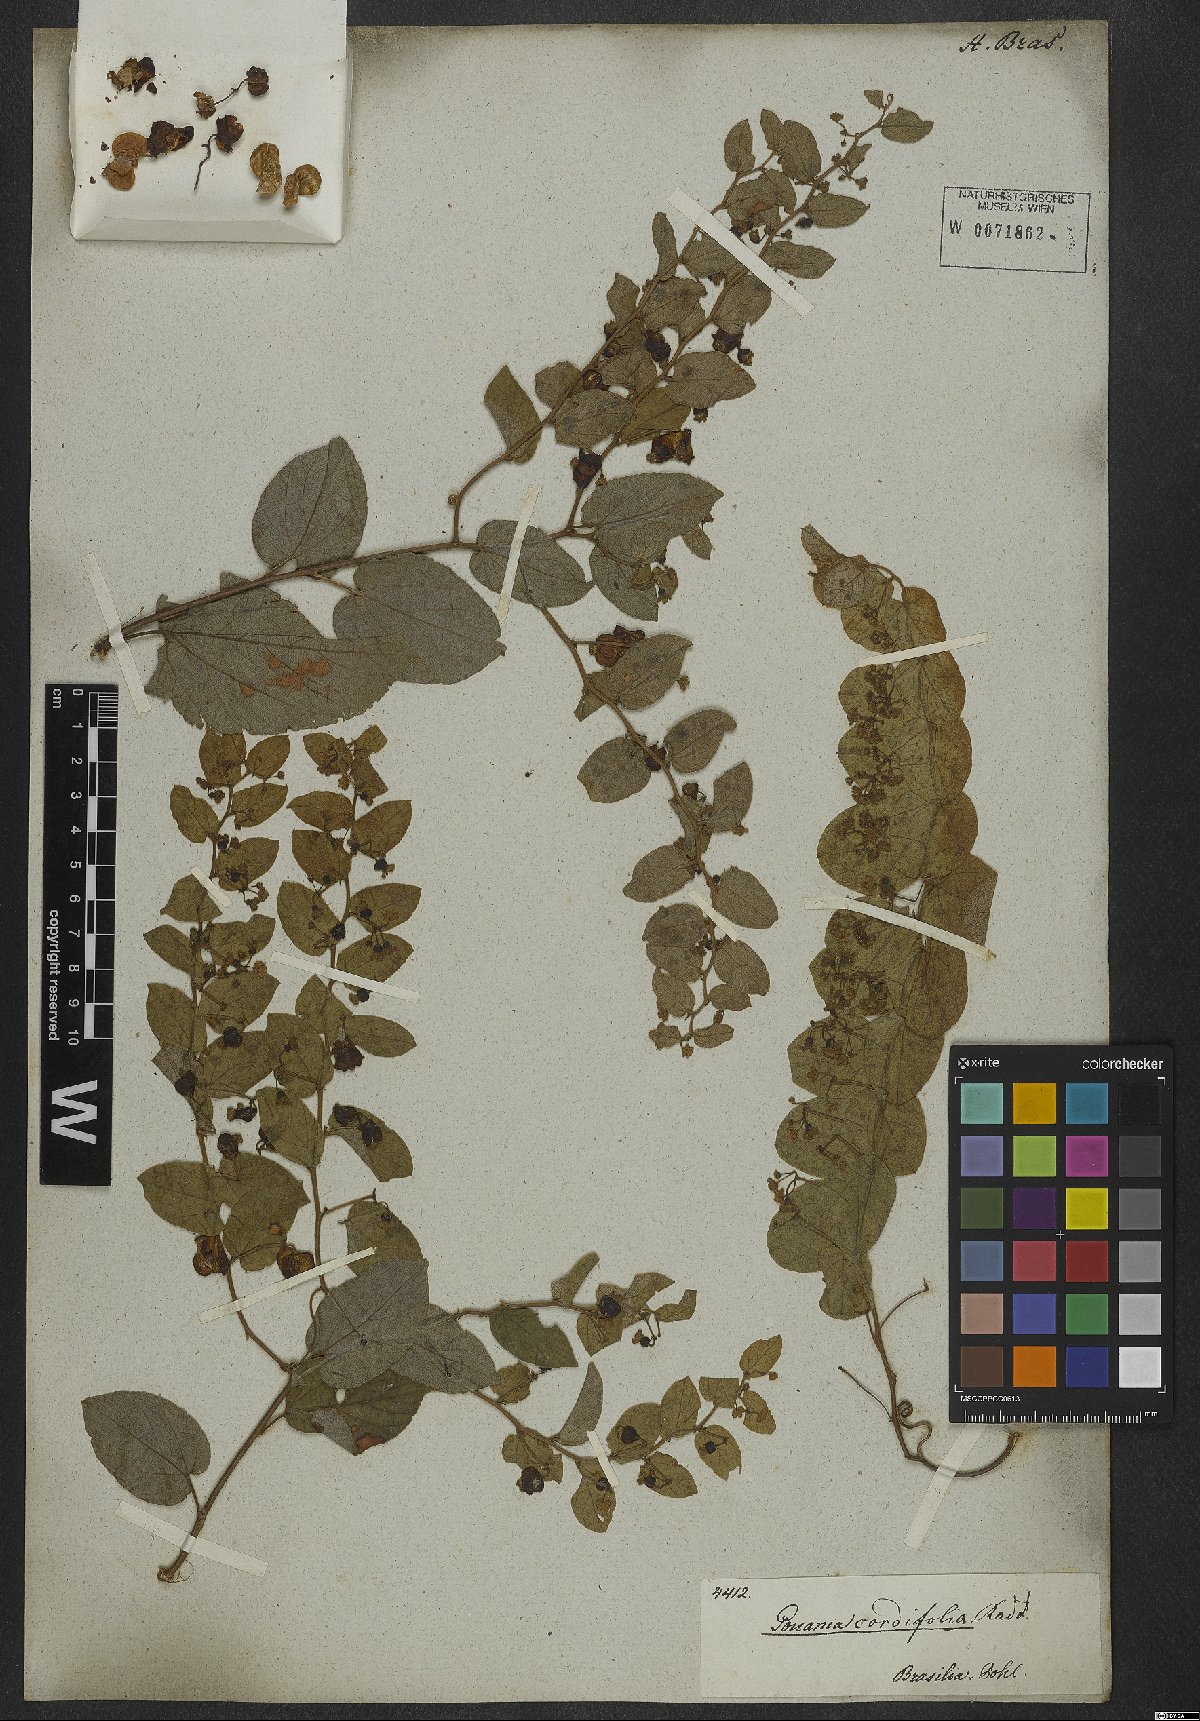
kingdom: Plantae
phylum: Tracheophyta
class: Magnoliopsida
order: Rosales
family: Rhamnaceae
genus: Reissekia
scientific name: Reissekia smilacina
